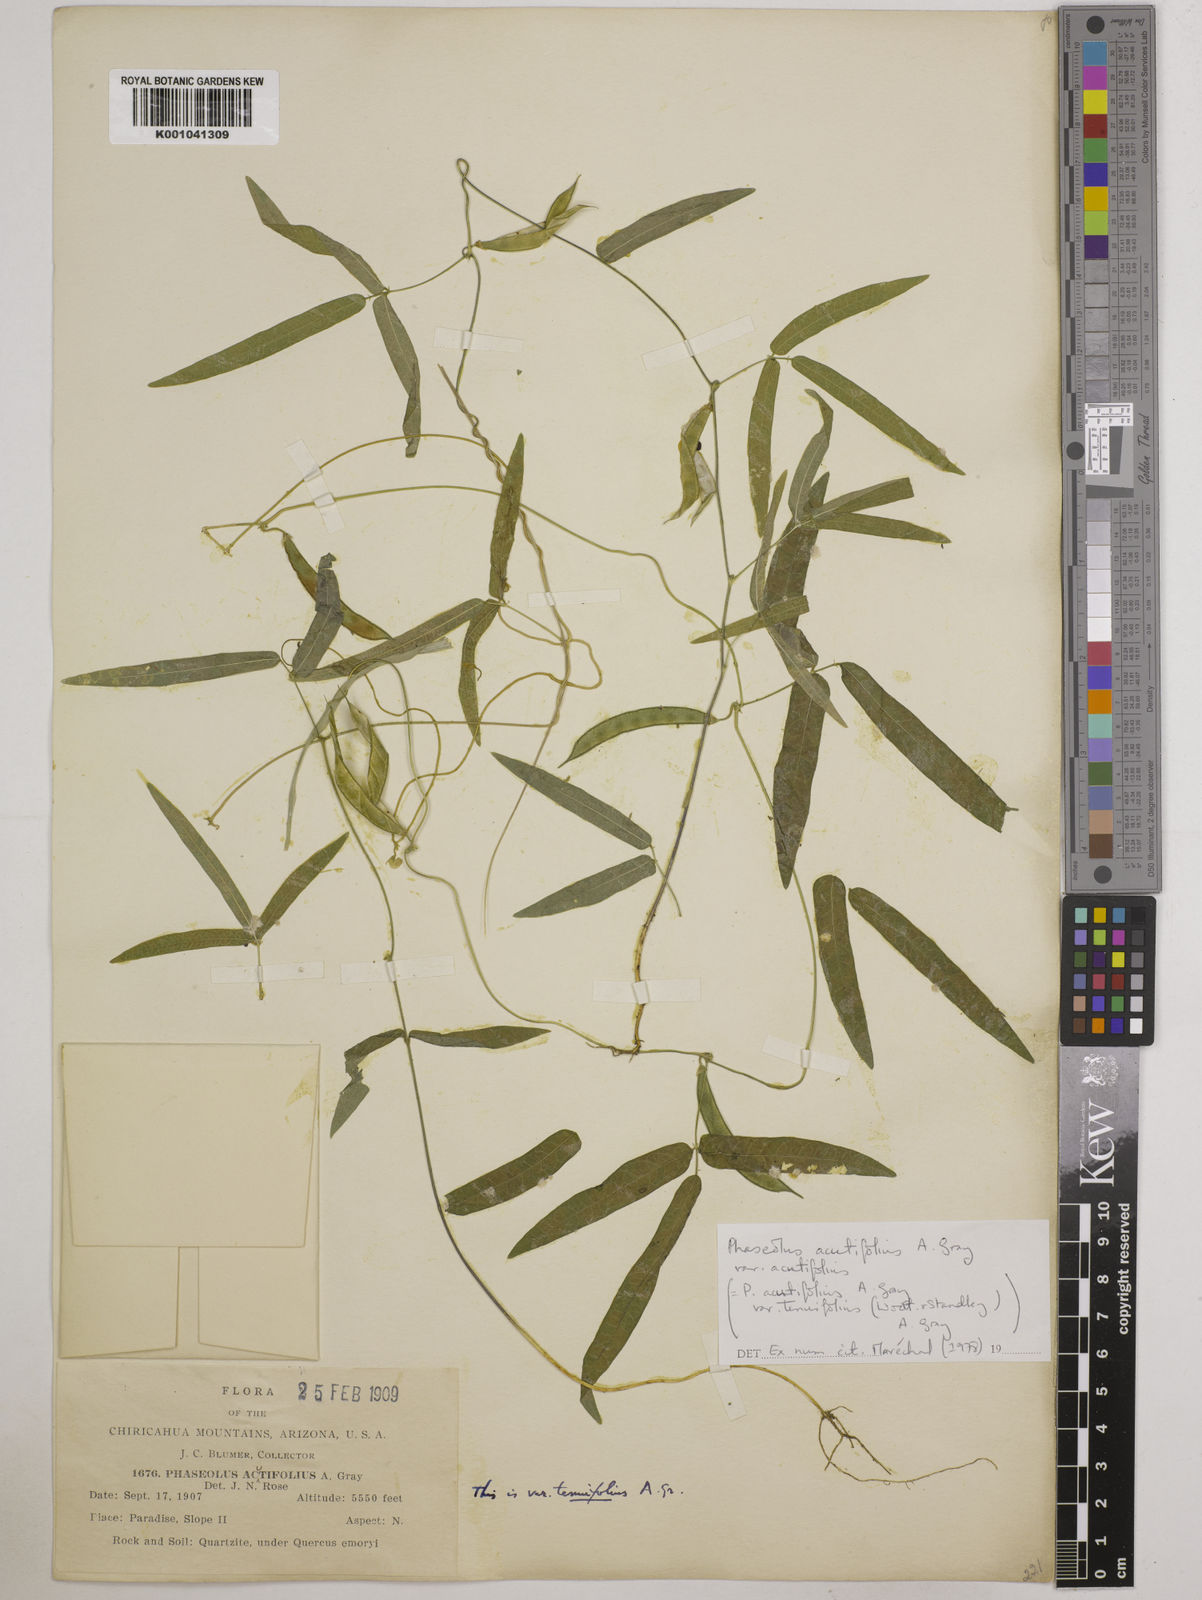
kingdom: Plantae
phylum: Tracheophyta
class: Magnoliopsida
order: Fabales
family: Fabaceae
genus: Phaseolus
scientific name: Phaseolus acutifolius
